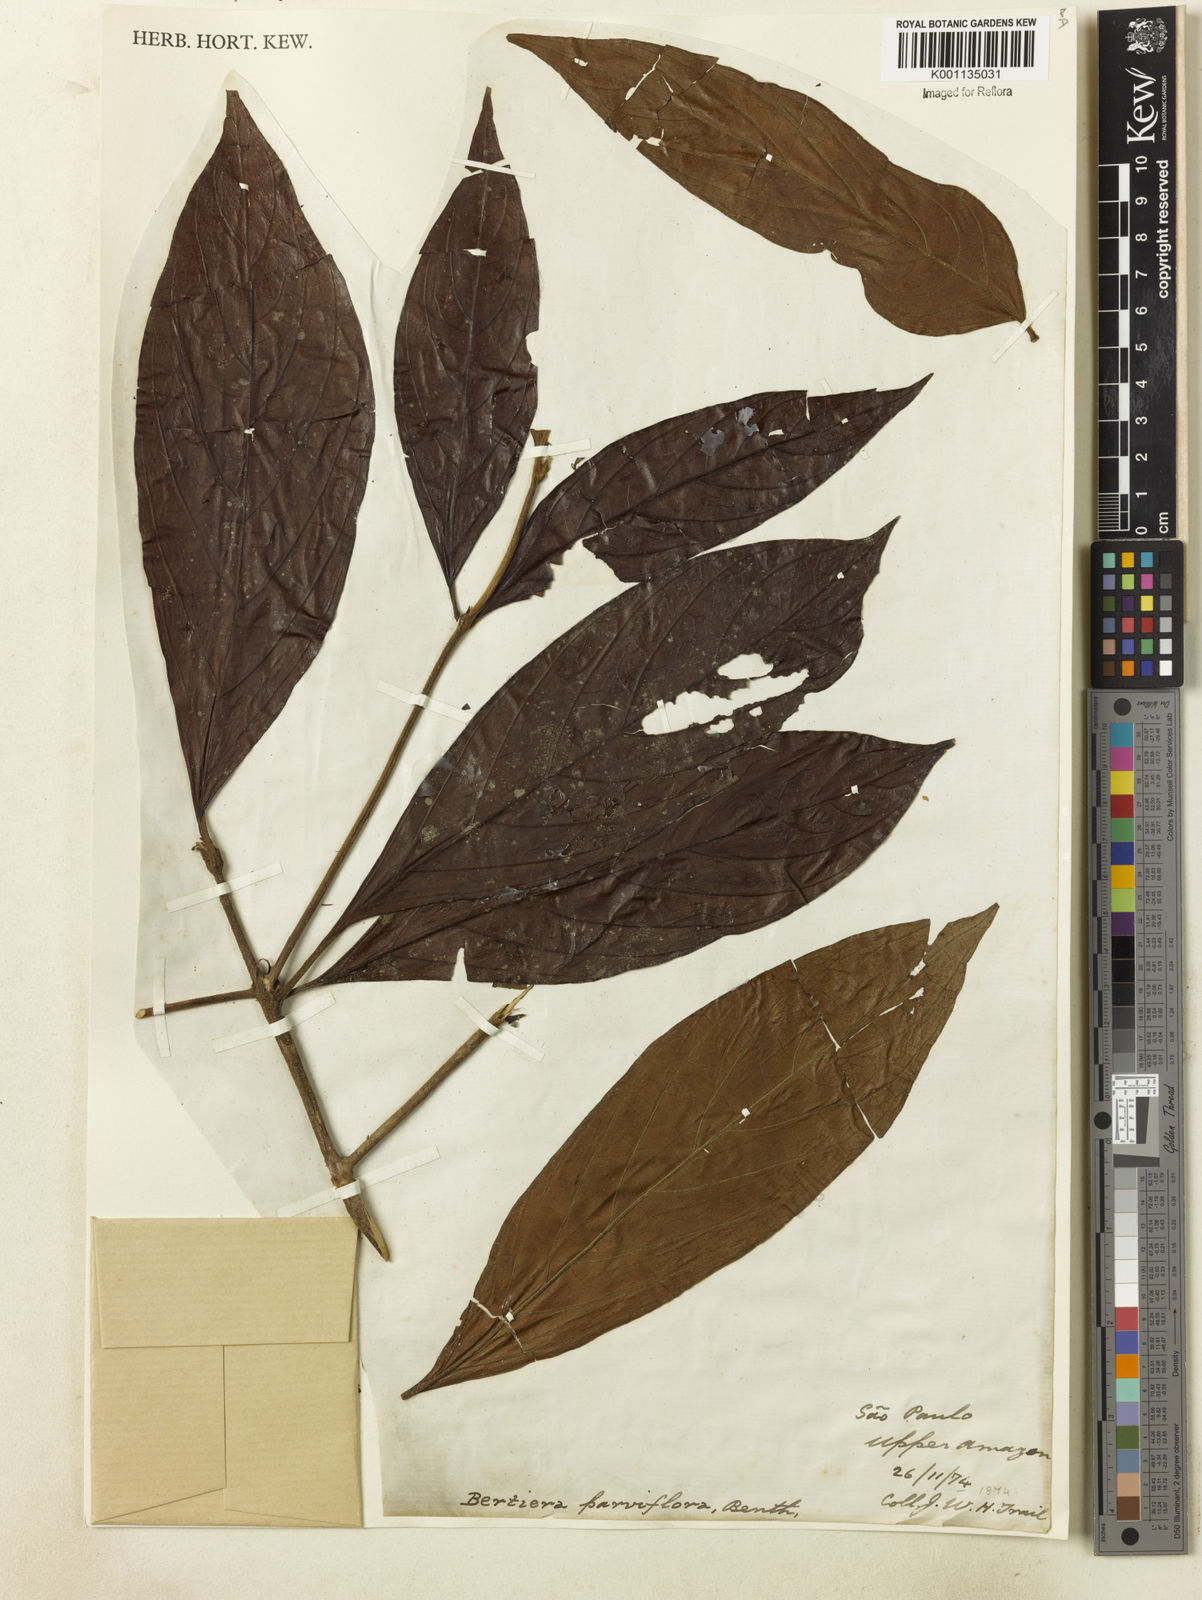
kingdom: Plantae
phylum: Tracheophyta
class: Magnoliopsida
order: Gentianales
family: Rubiaceae
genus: Bertiera
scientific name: Bertiera parviflora
